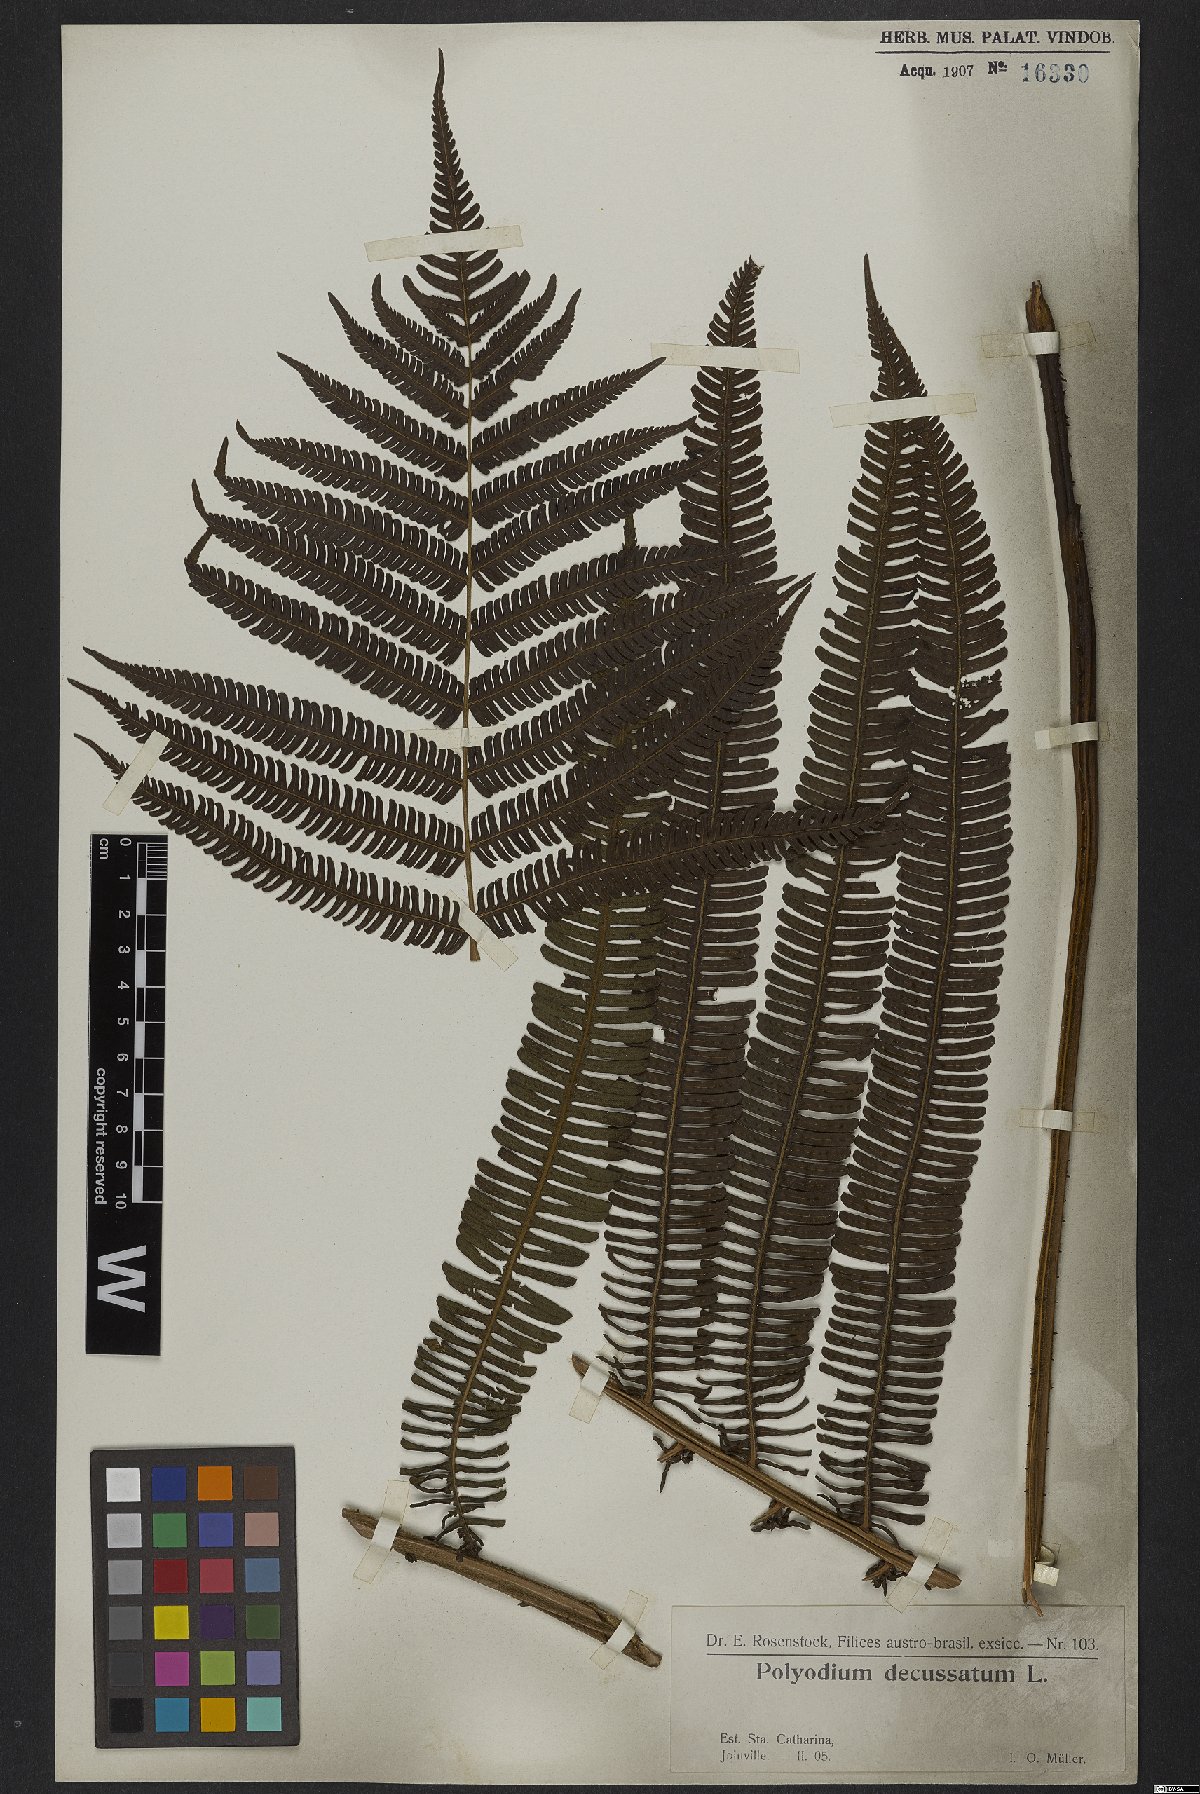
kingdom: Plantae
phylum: Tracheophyta
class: Polypodiopsida
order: Polypodiales
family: Thelypteridaceae
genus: Steiropteris
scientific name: Steiropteris decussata
